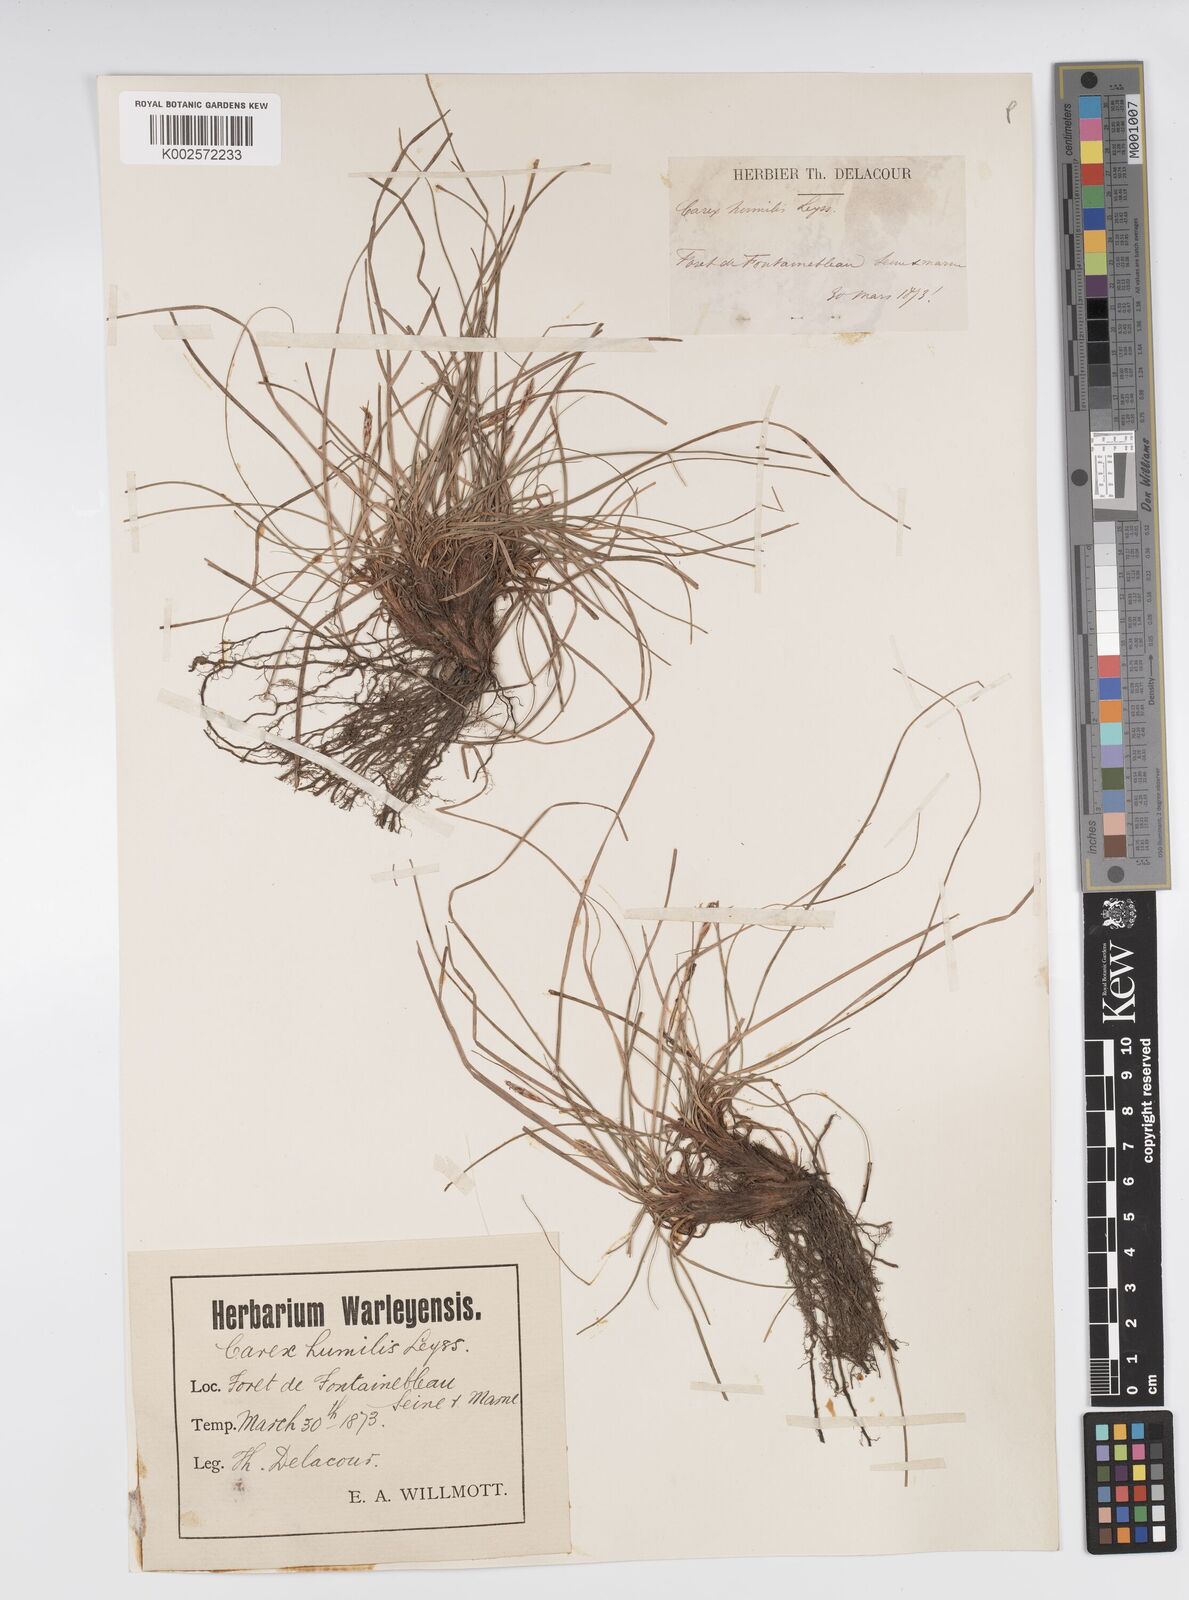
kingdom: Plantae
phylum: Tracheophyta
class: Liliopsida
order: Poales
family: Cyperaceae
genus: Carex
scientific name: Carex humilis
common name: Dwarf sedge
